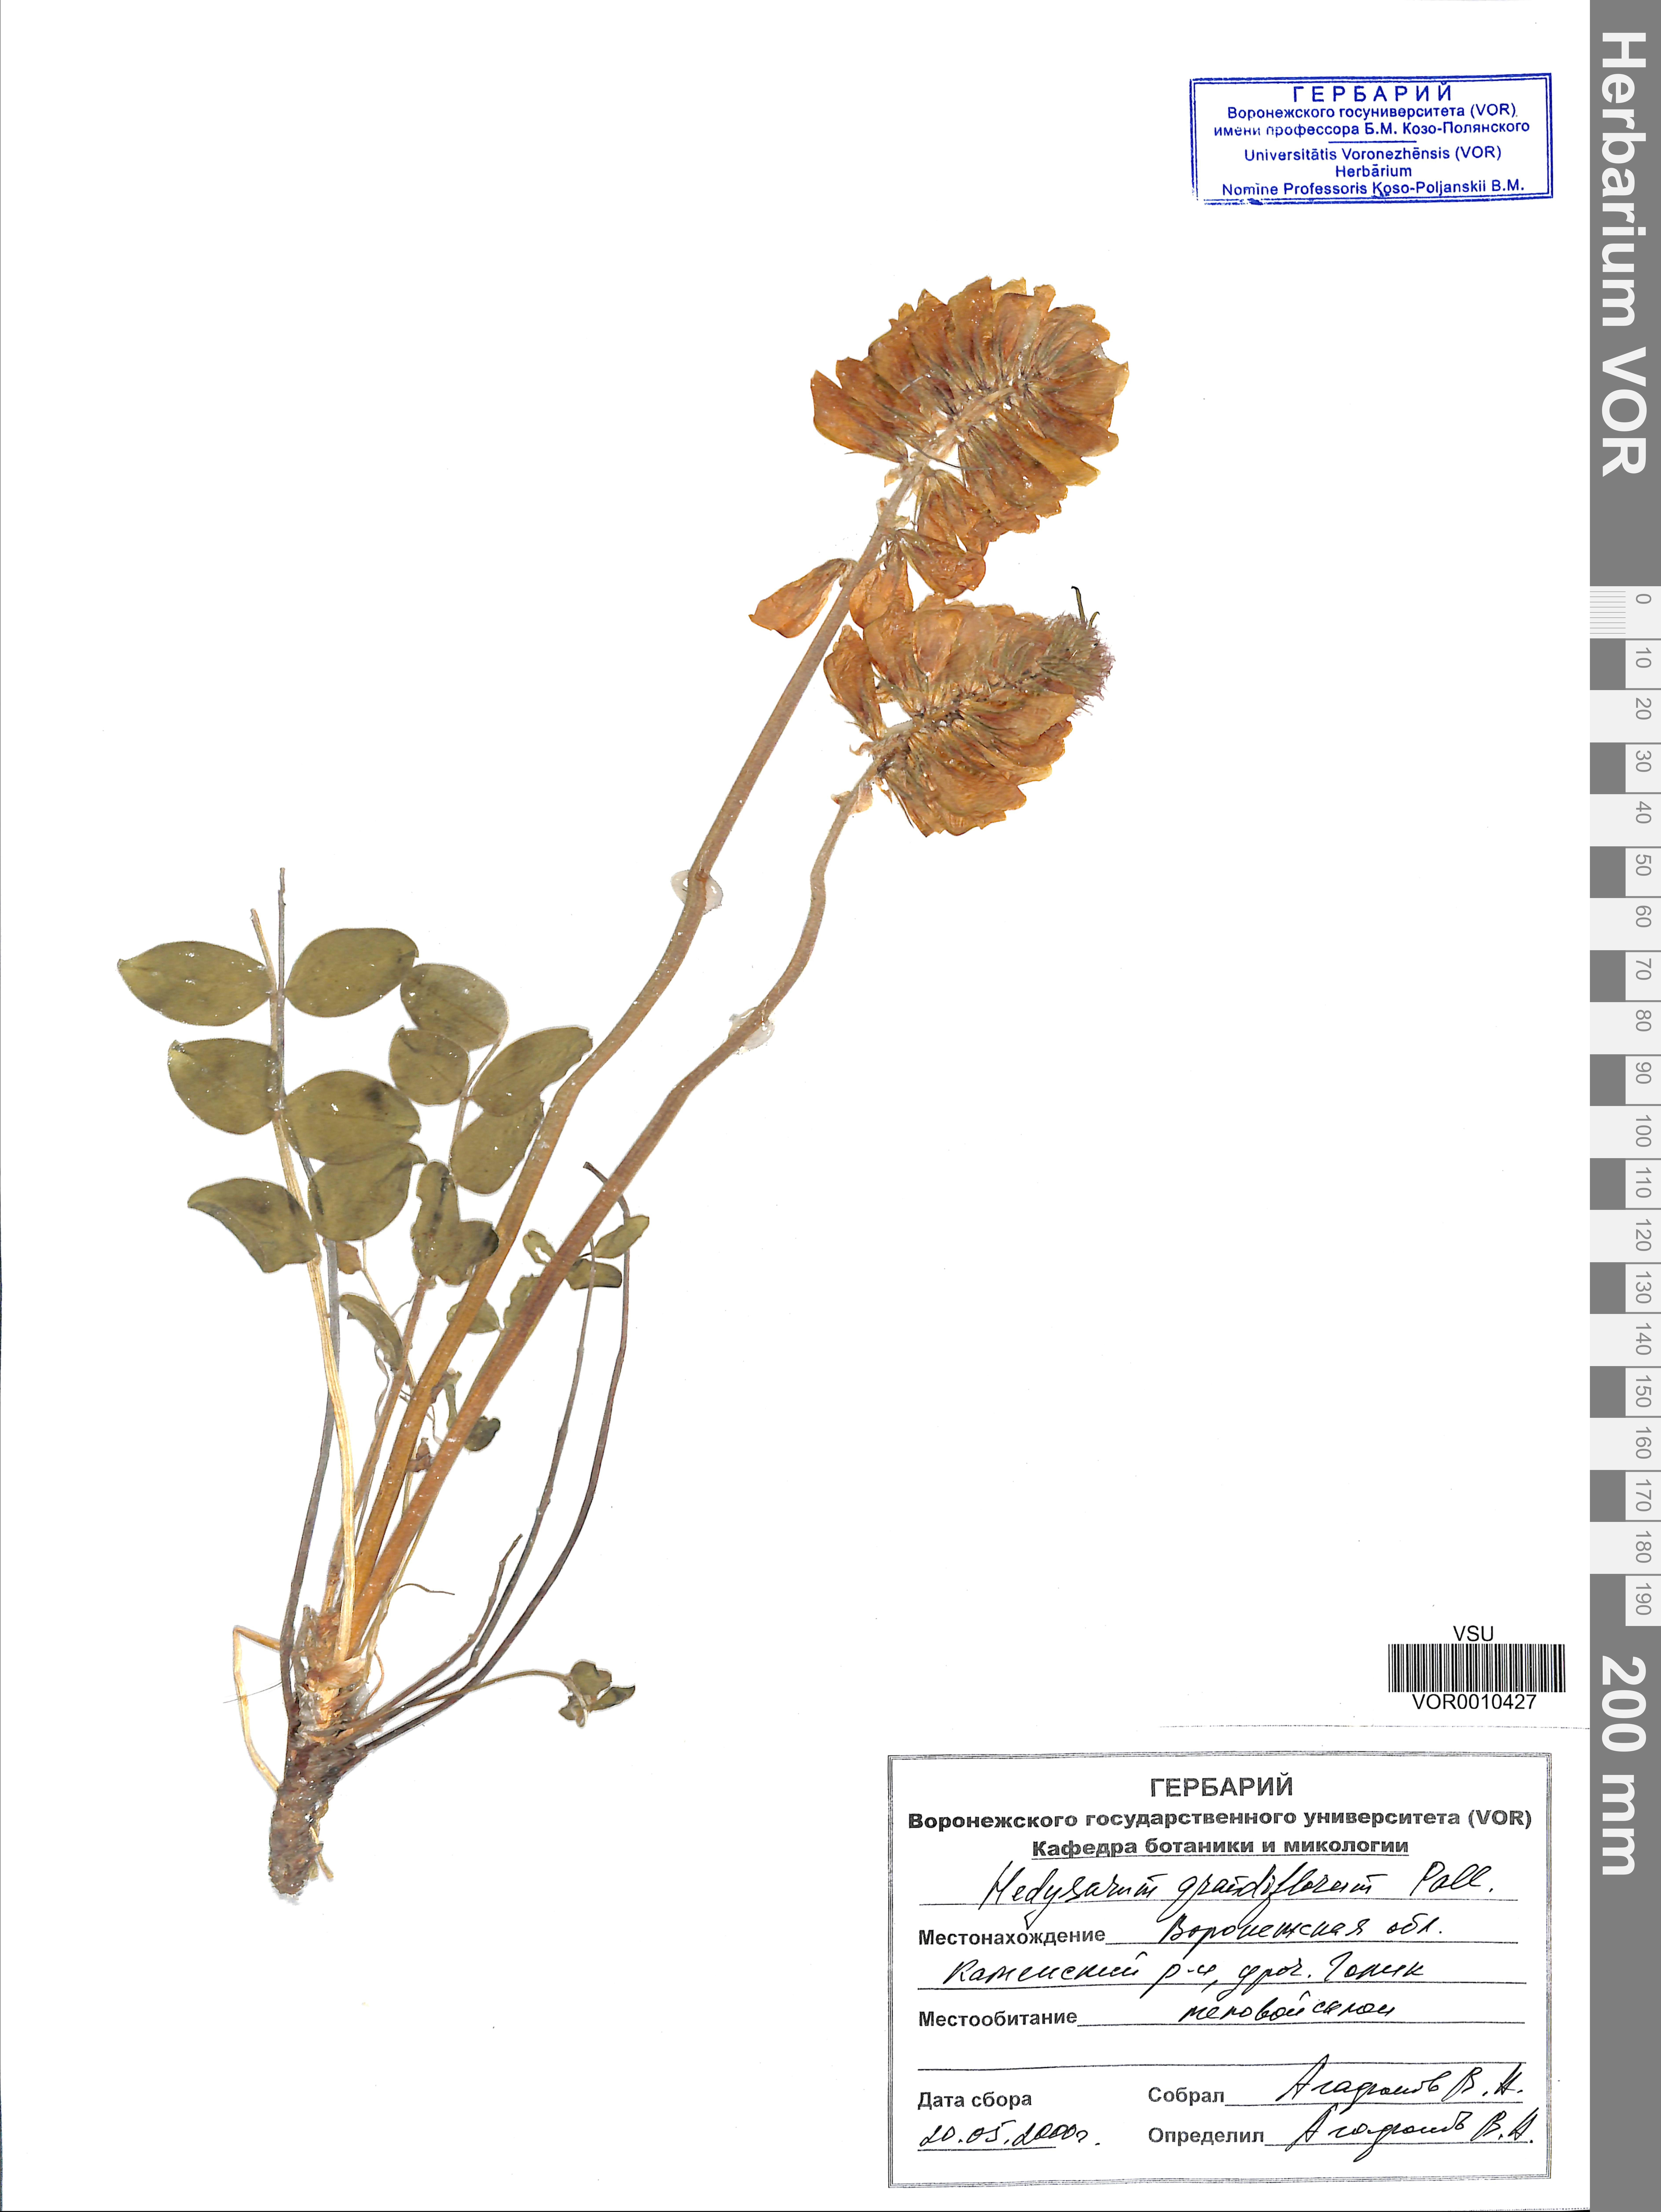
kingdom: Plantae
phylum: Tracheophyta
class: Magnoliopsida
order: Fabales
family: Fabaceae
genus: Hedysarum
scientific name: Hedysarum grandiflorum
